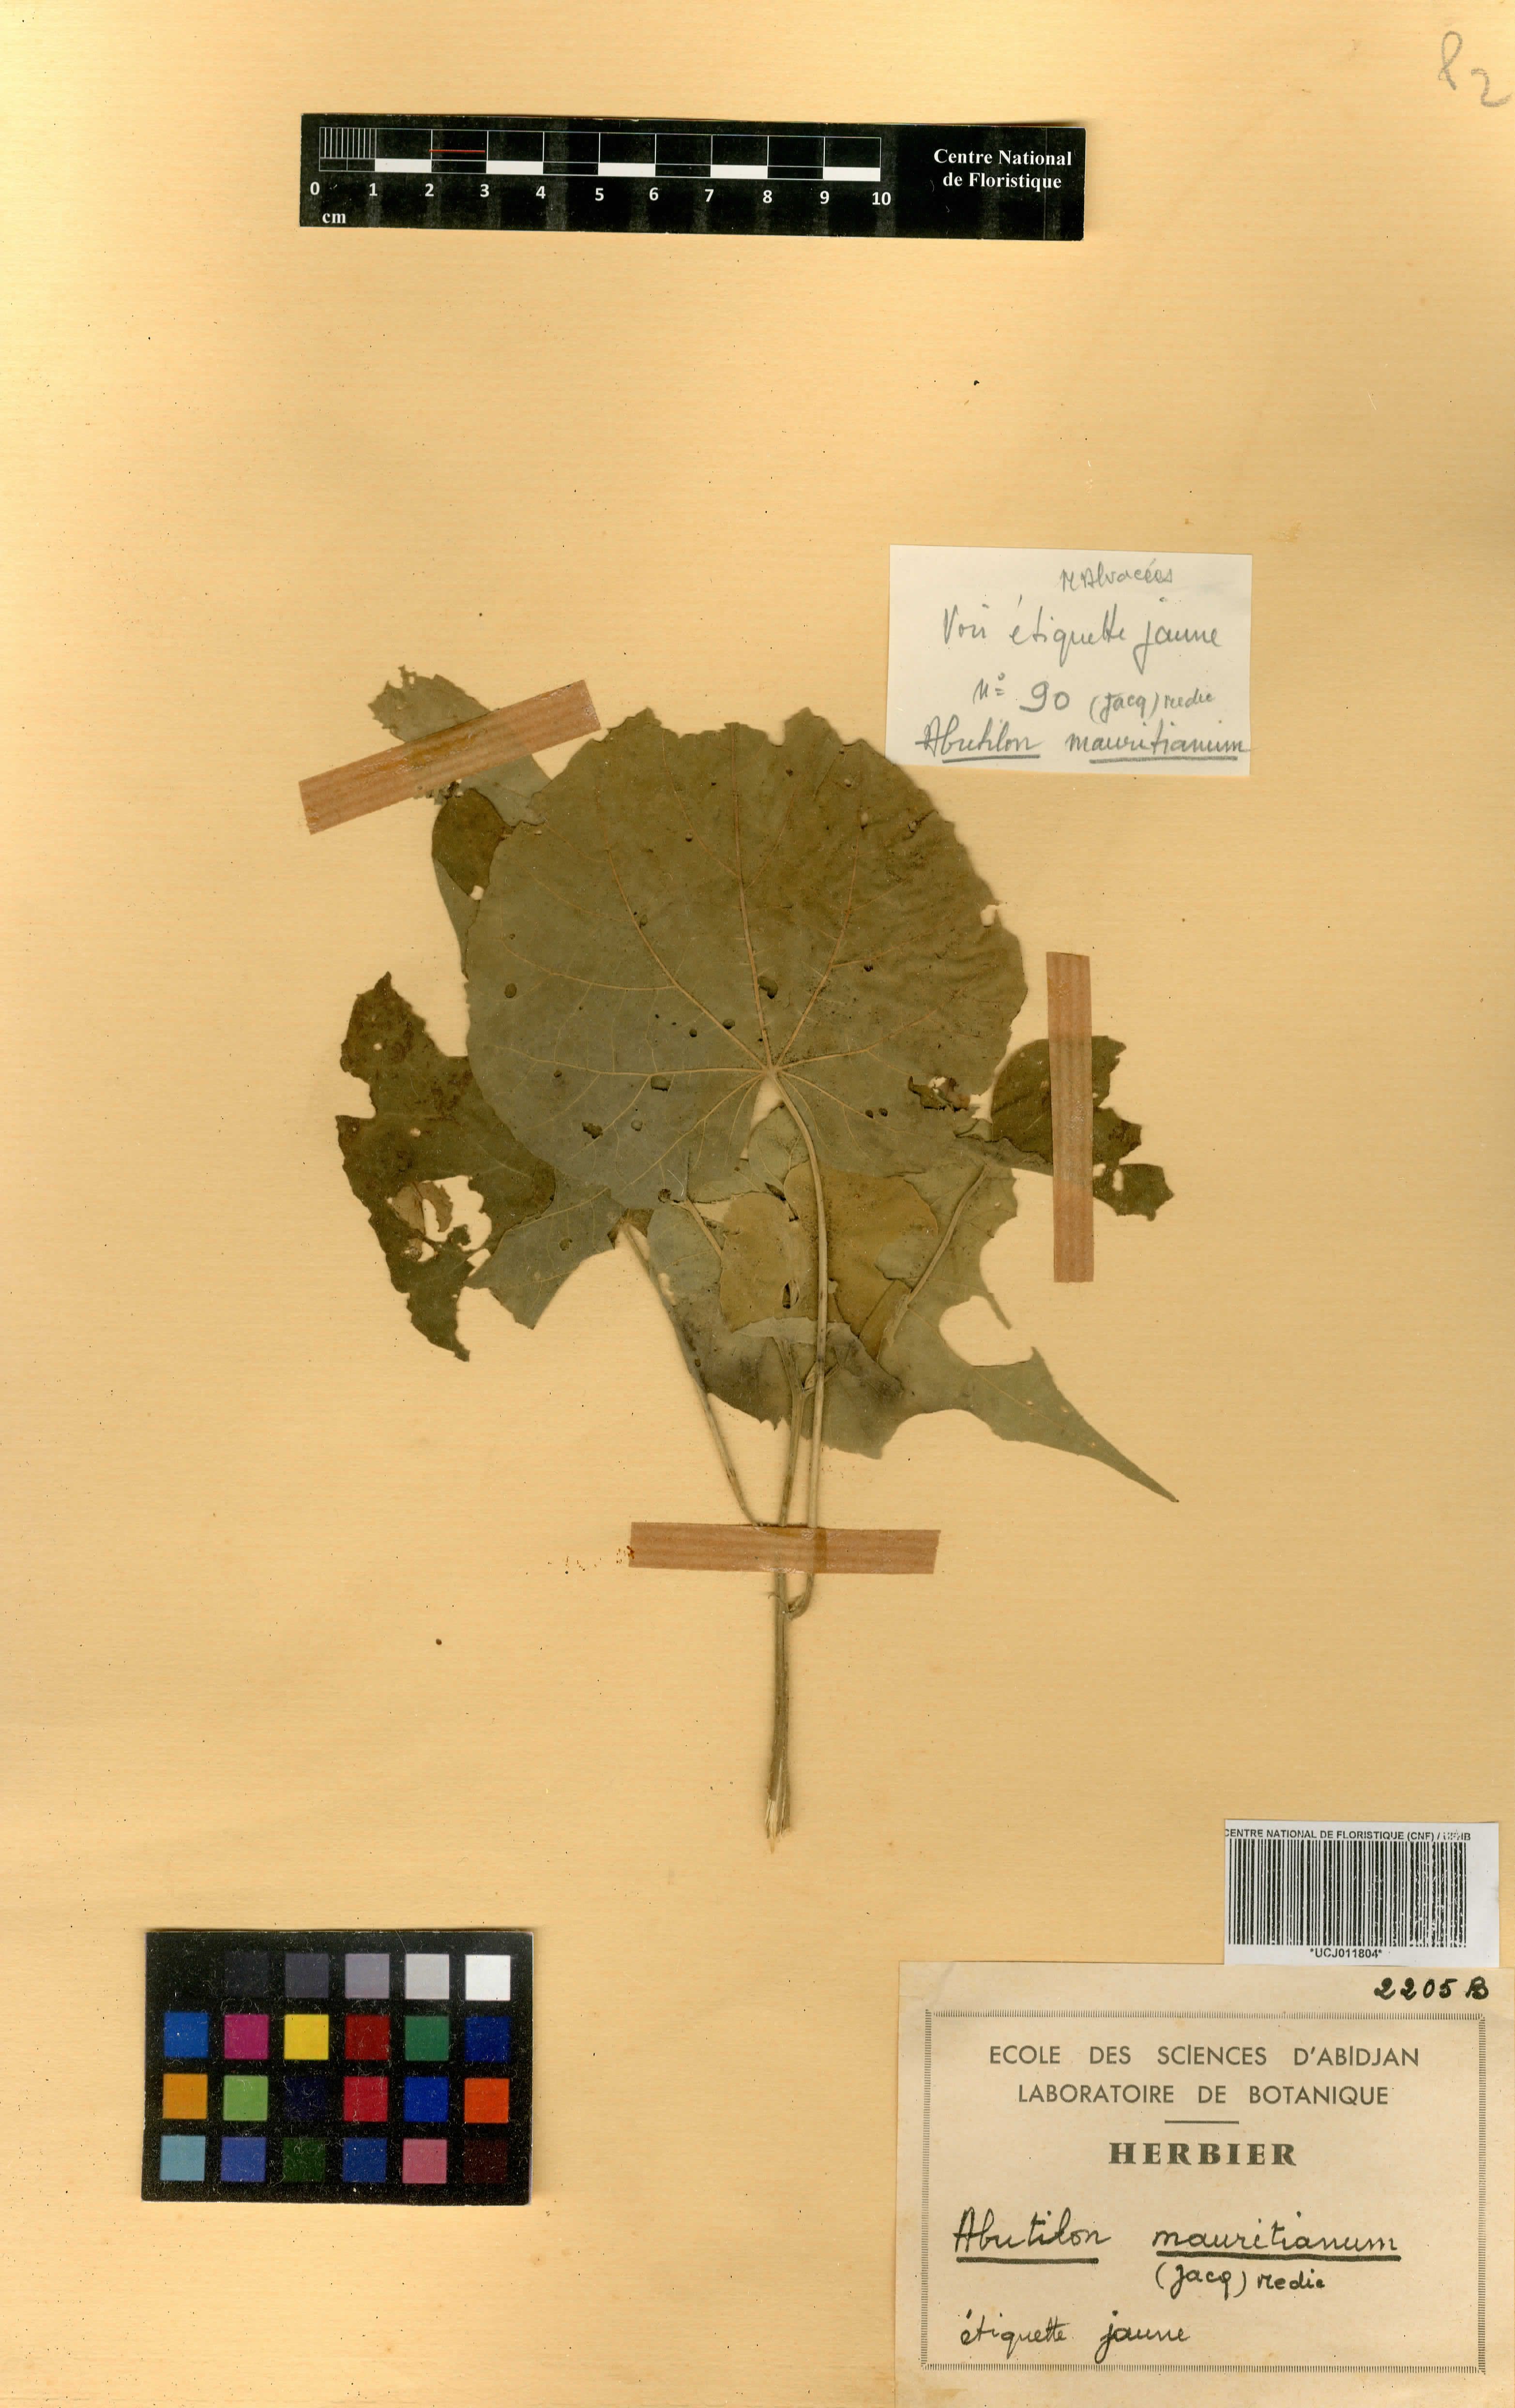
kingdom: Plantae
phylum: Tracheophyta
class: Magnoliopsida
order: Malvales
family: Malvaceae
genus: Abutilon
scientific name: Abutilon mauritianum
